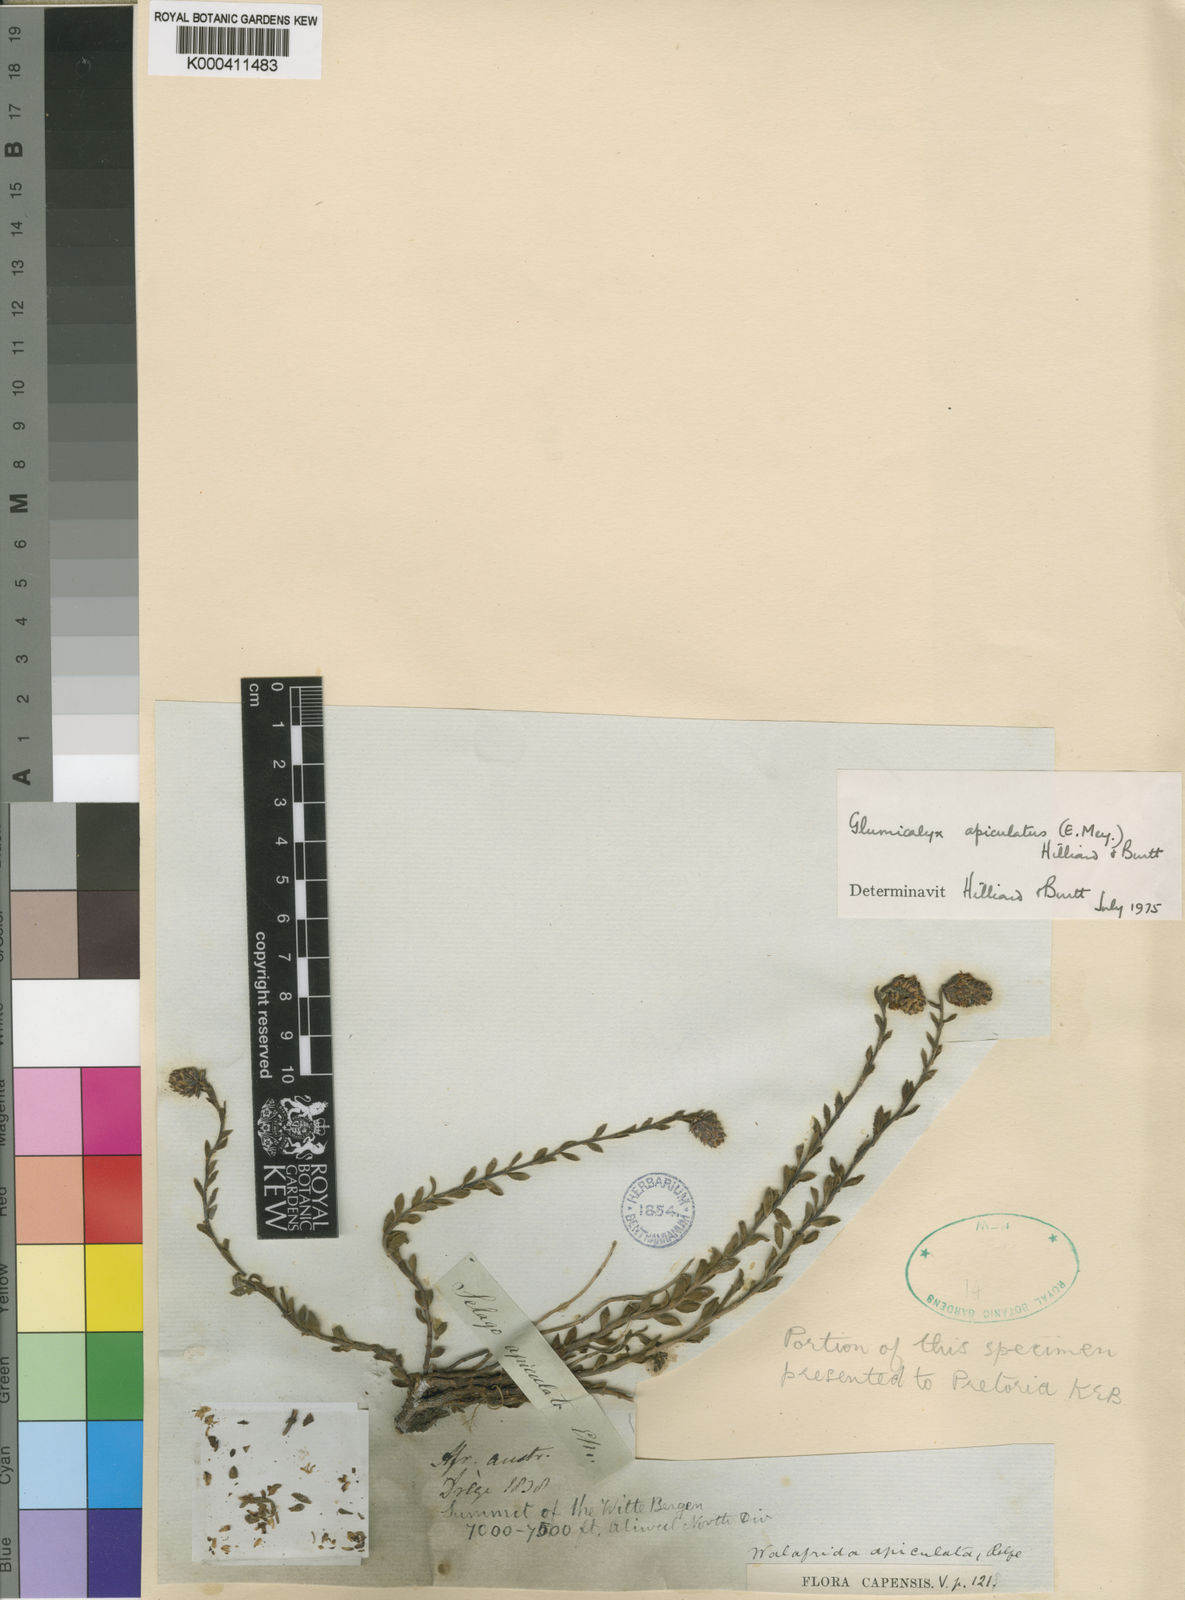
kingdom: Plantae
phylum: Tracheophyta
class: Magnoliopsida
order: Lamiales
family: Scrophulariaceae
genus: Glumicalyx
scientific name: Glumicalyx apiculatus
